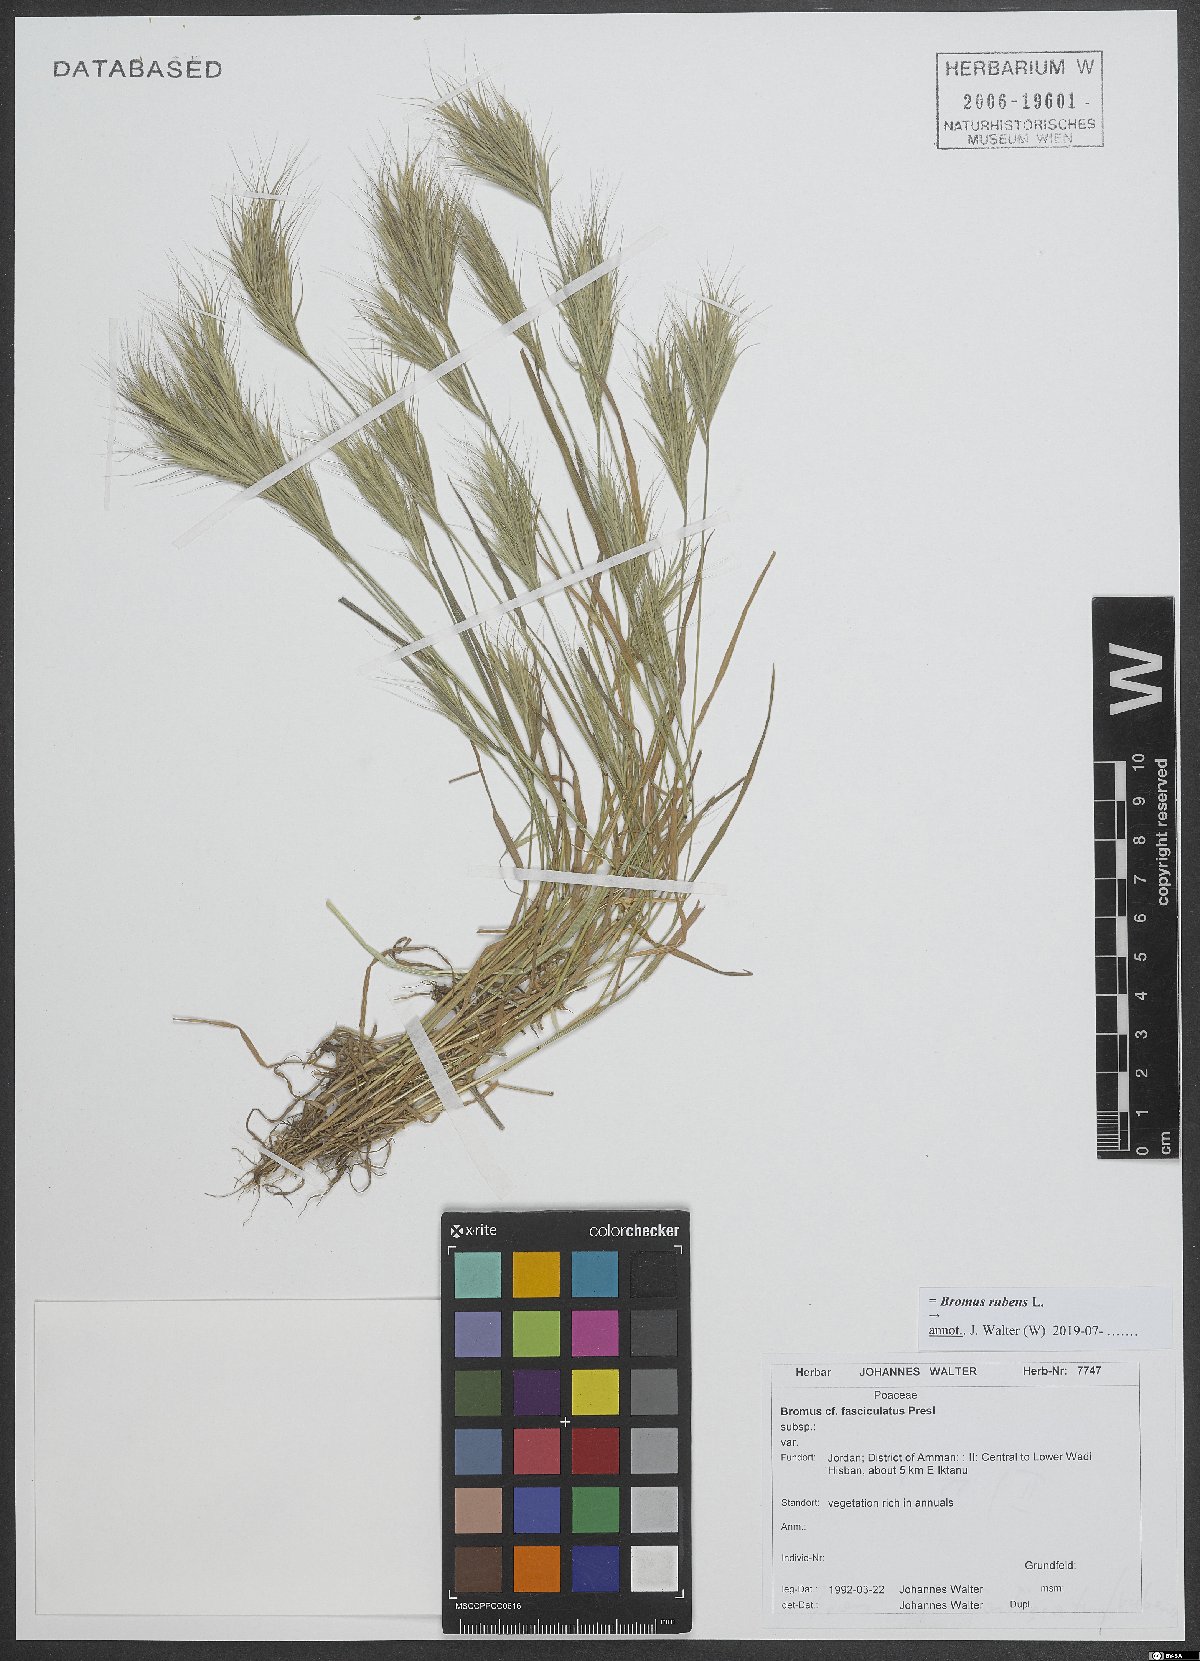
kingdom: Plantae
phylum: Tracheophyta
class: Liliopsida
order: Poales
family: Poaceae
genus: Bromus
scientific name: Bromus rubens
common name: Red brome
